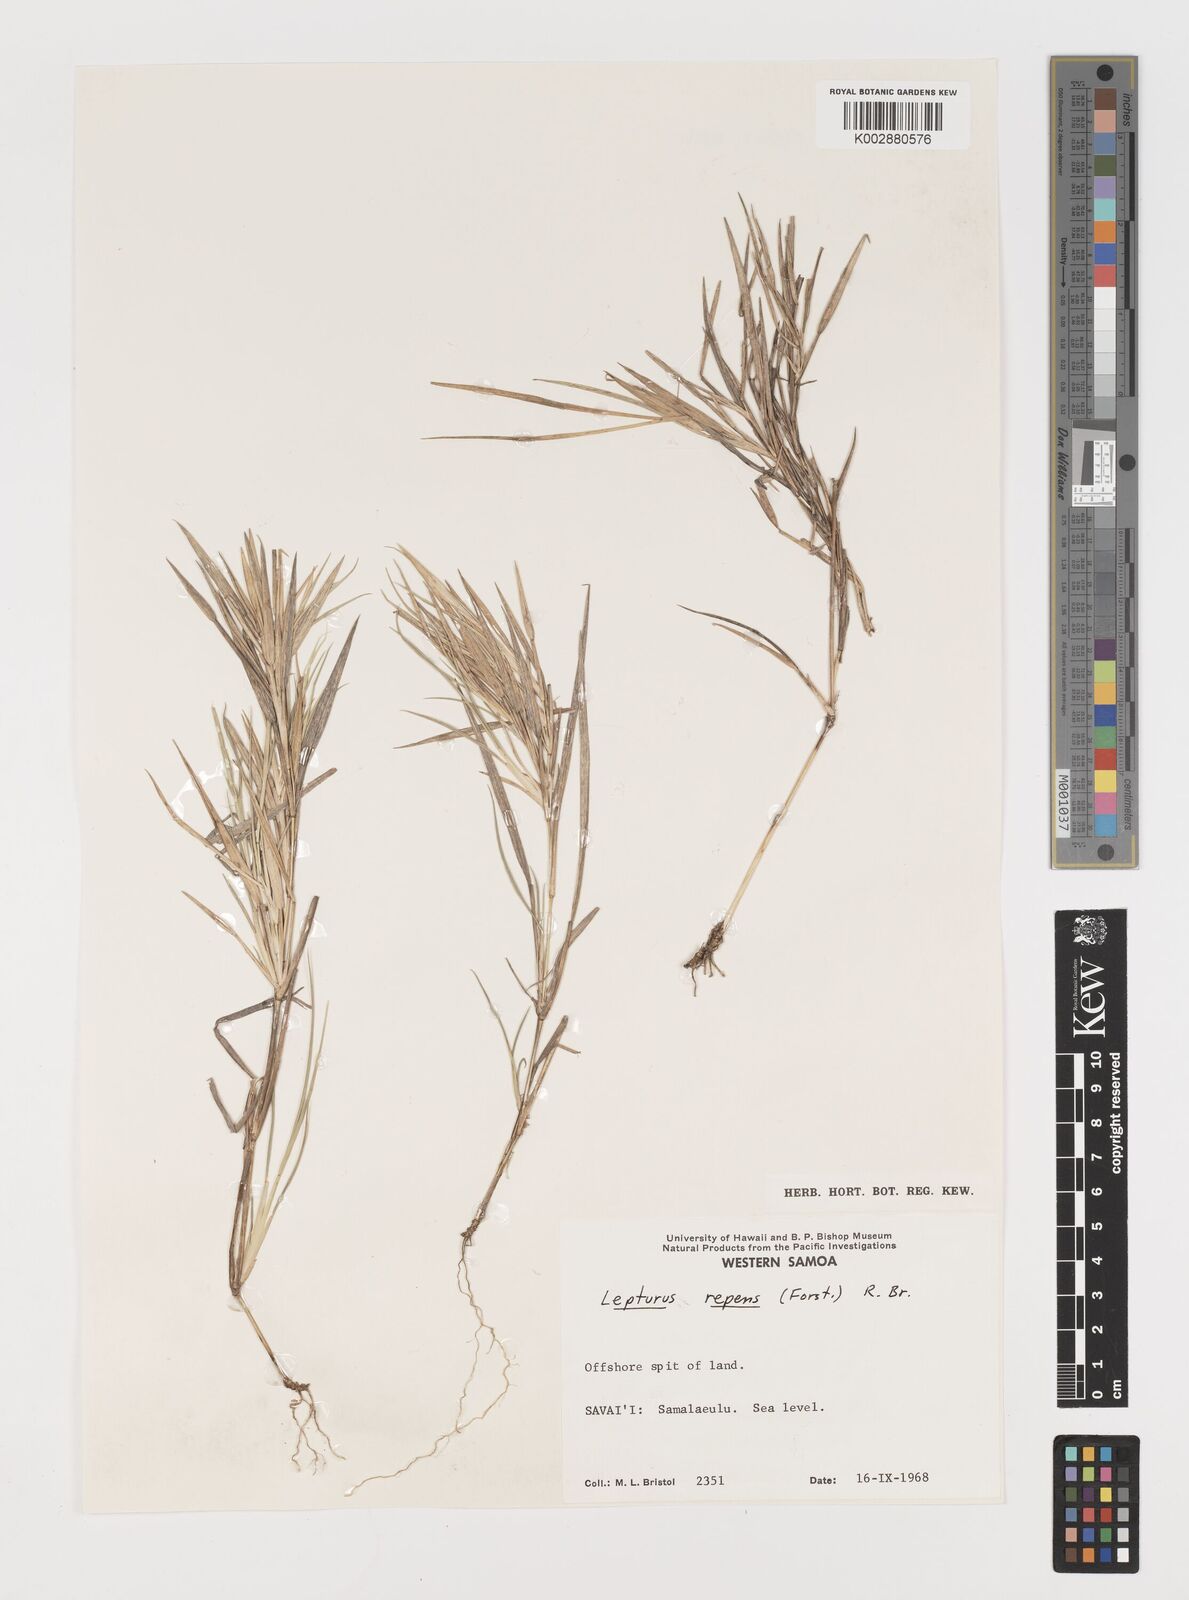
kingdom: Plantae
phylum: Tracheophyta
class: Liliopsida
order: Poales
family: Poaceae
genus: Lepturus
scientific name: Lepturus repens
